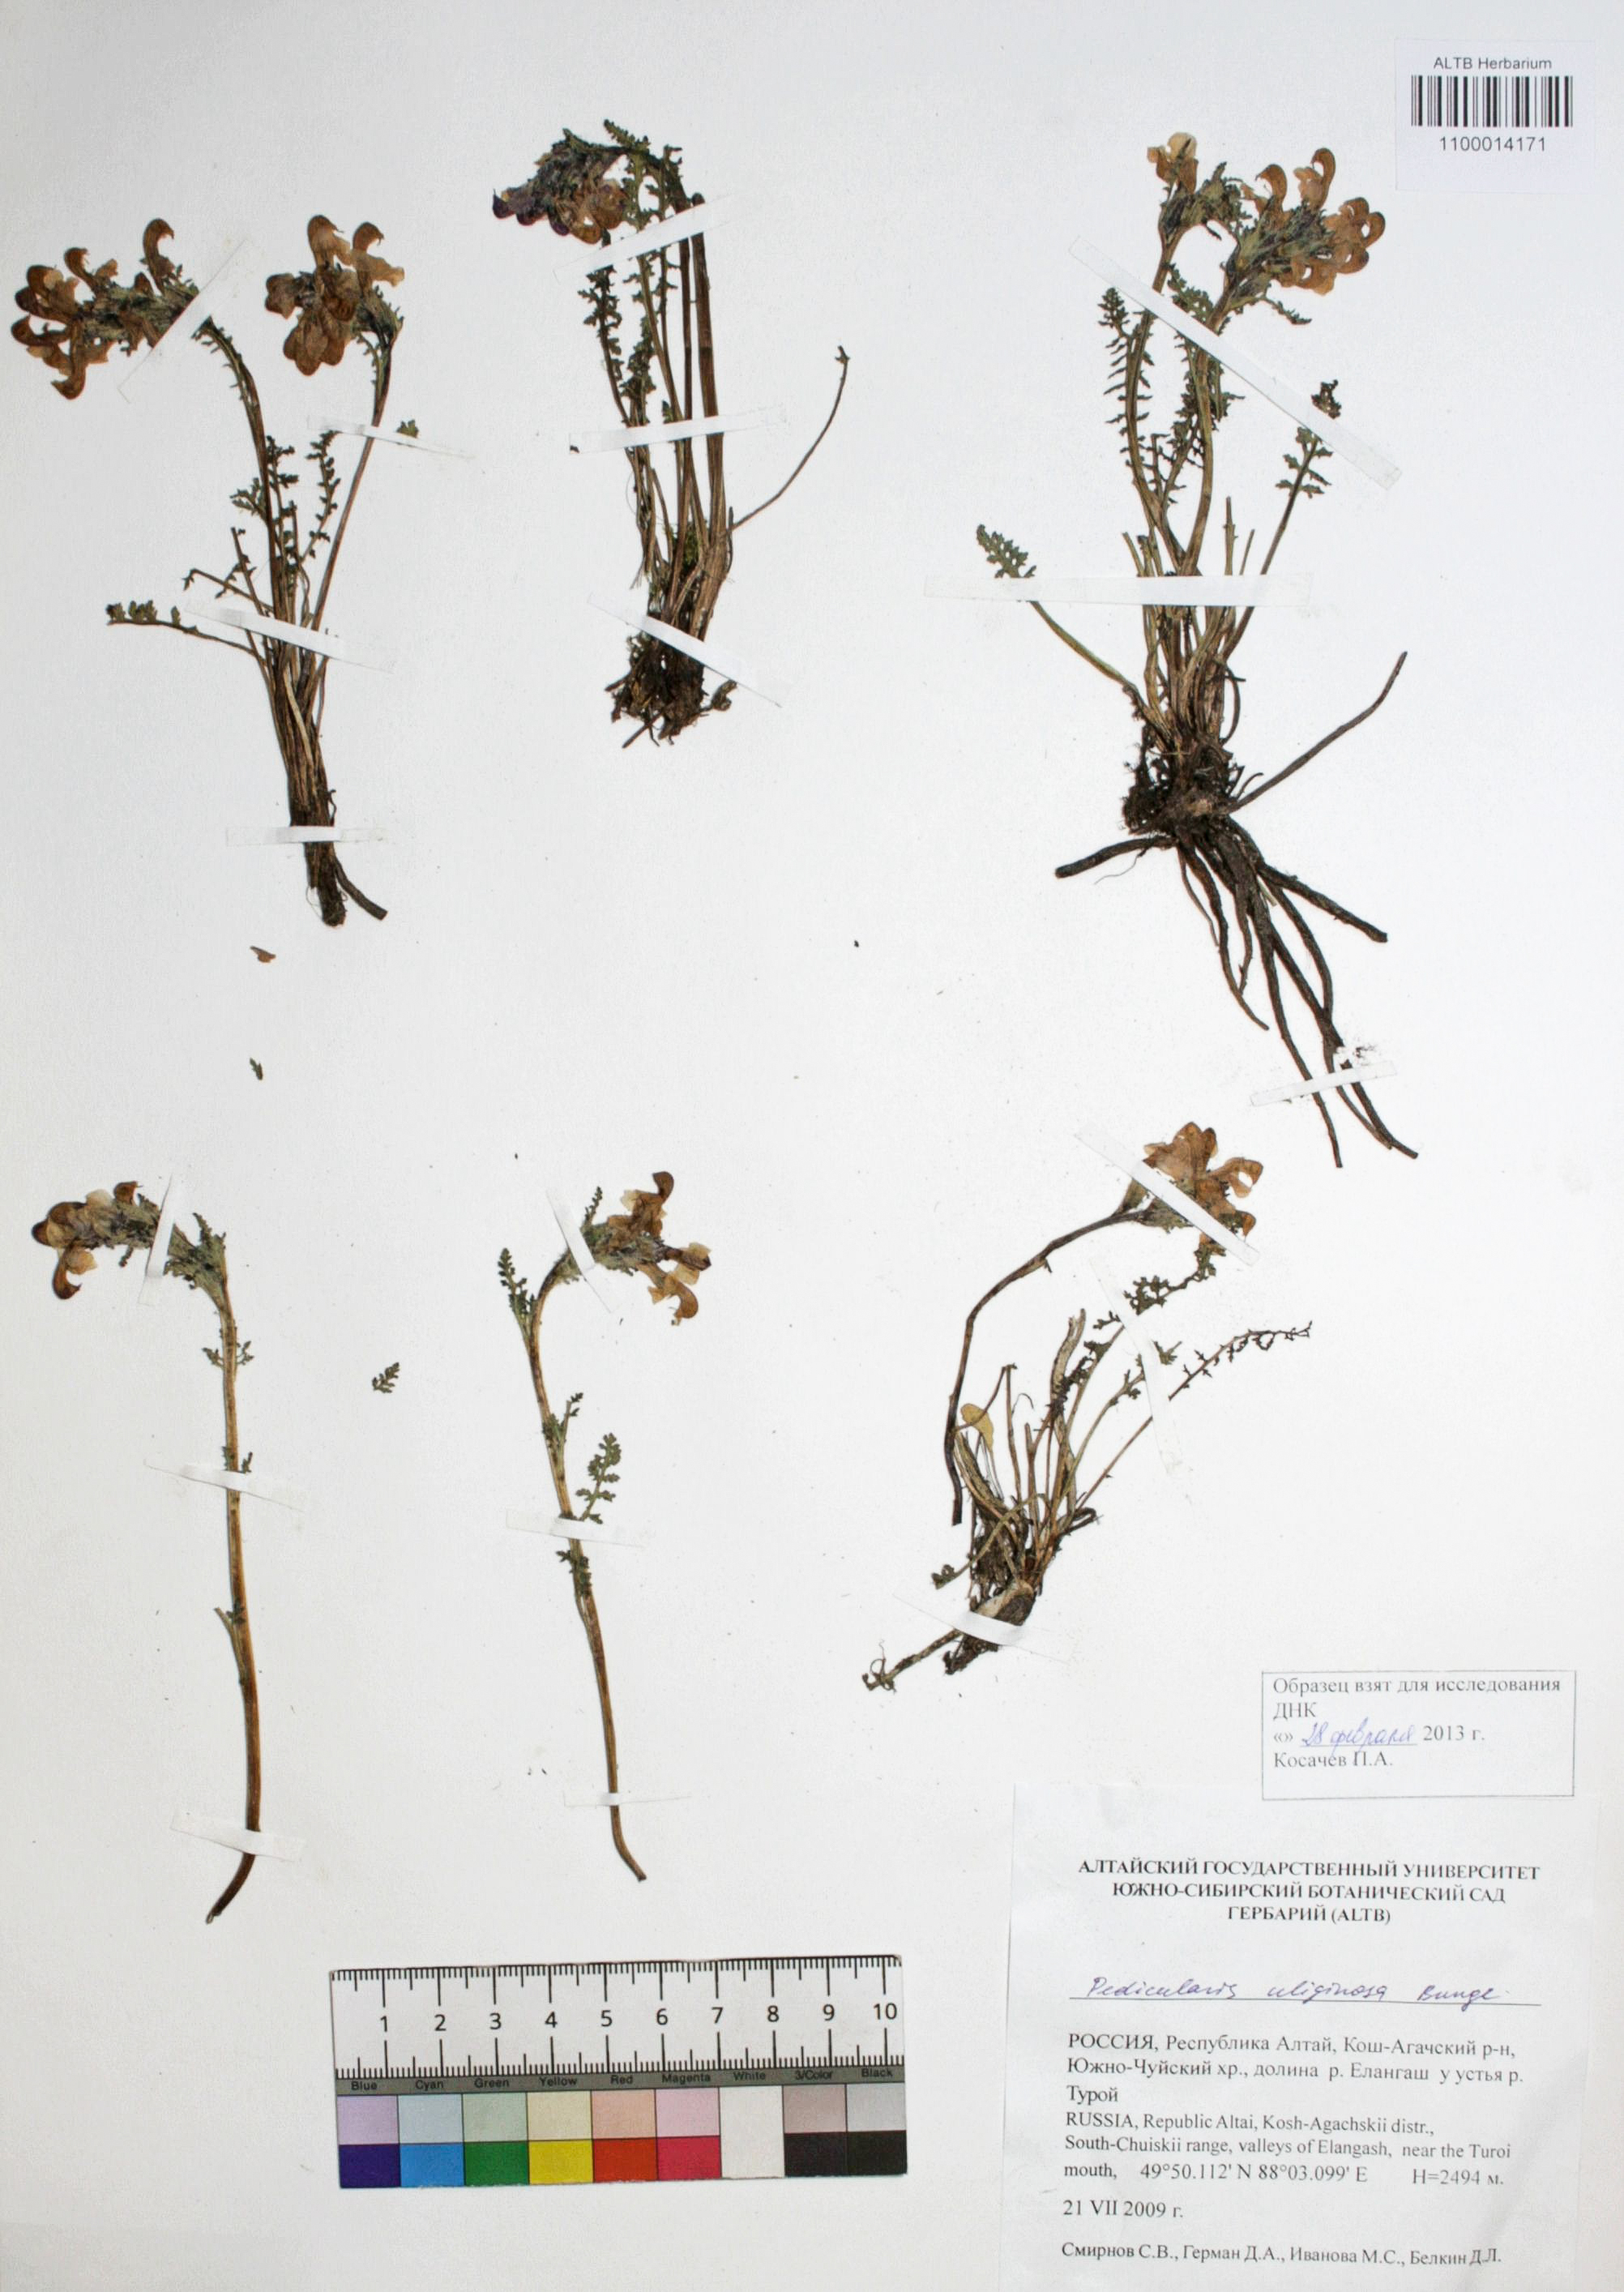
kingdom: Plantae
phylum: Tracheophyta
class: Magnoliopsida
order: Lamiales
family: Orobanchaceae
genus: Pedicularis
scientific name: Pedicularis uliginosa
